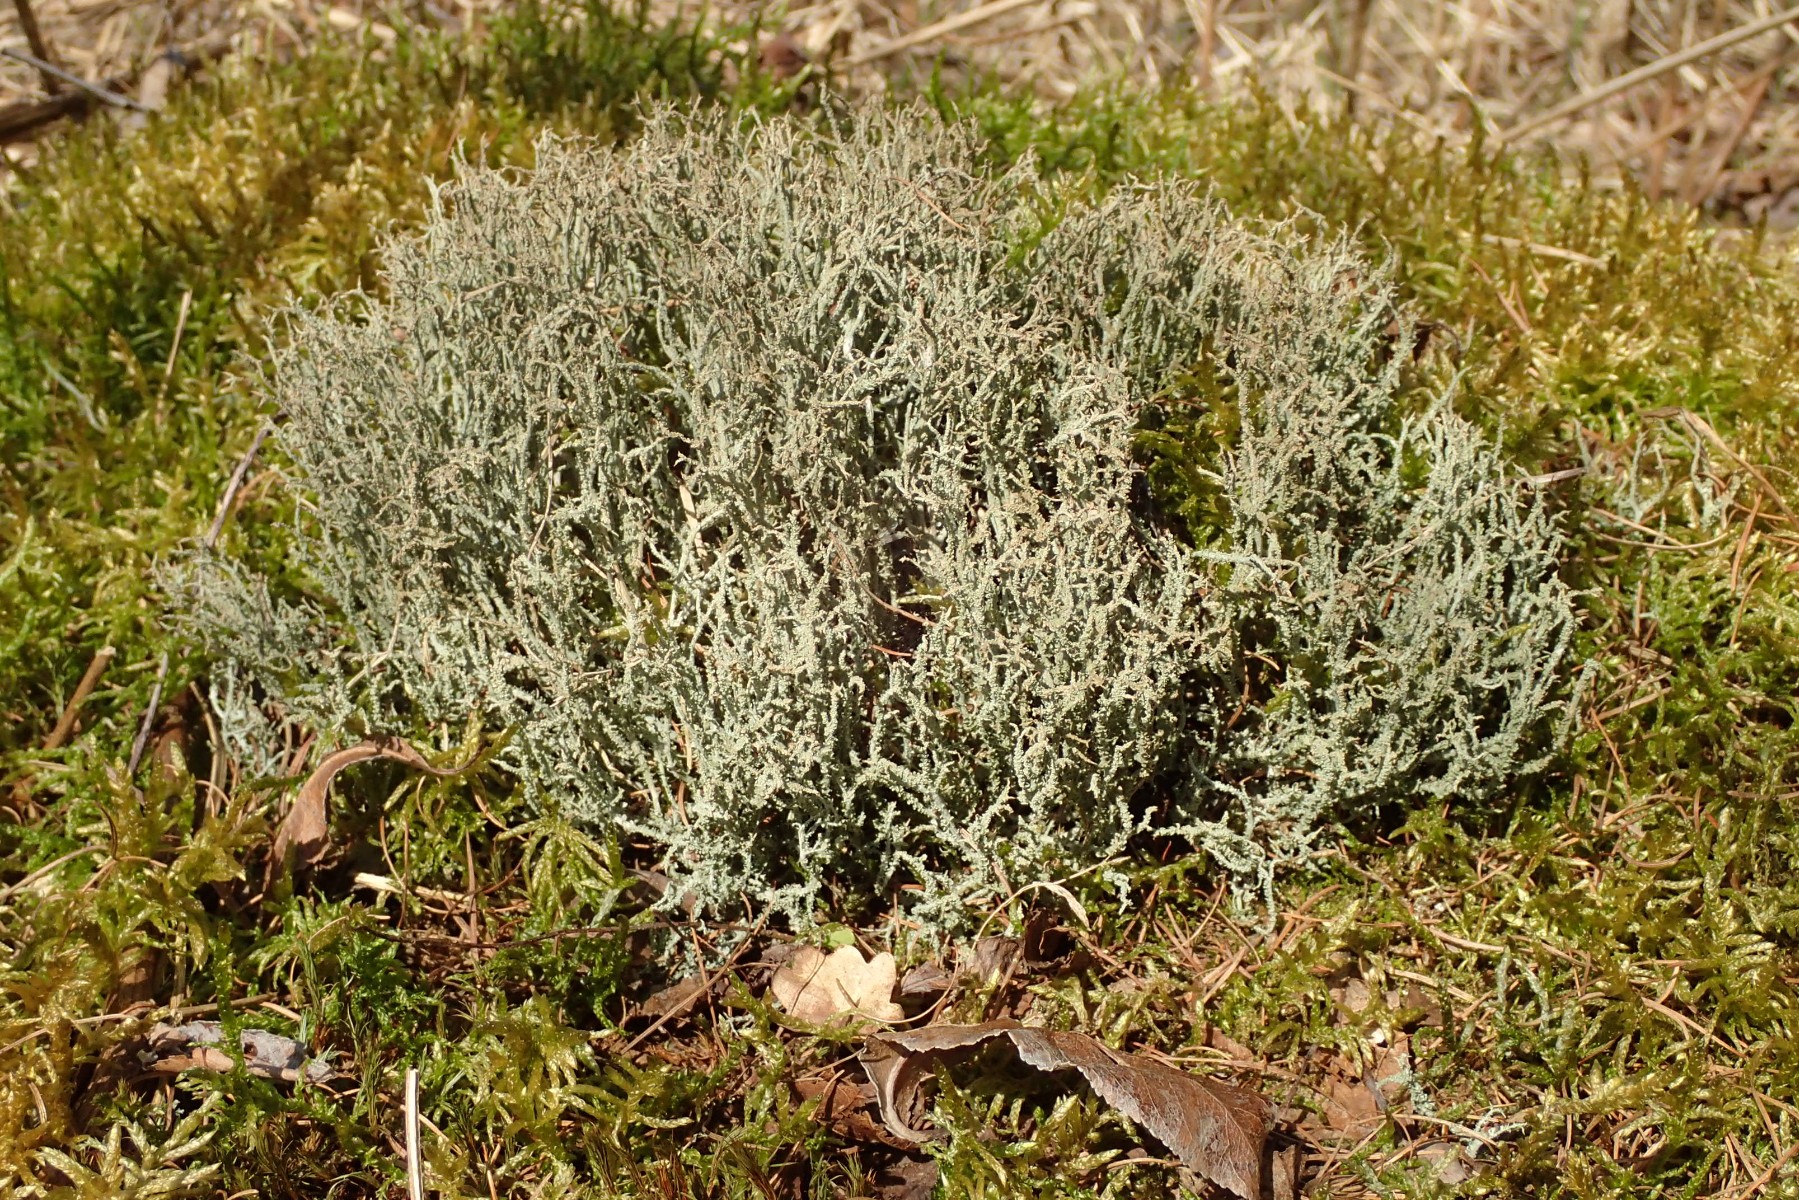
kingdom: Fungi
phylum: Ascomycota
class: Lecanoromycetes
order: Lecanorales
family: Cladoniaceae
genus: Cladonia
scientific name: Cladonia scabriuscula
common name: ru bægerlav
